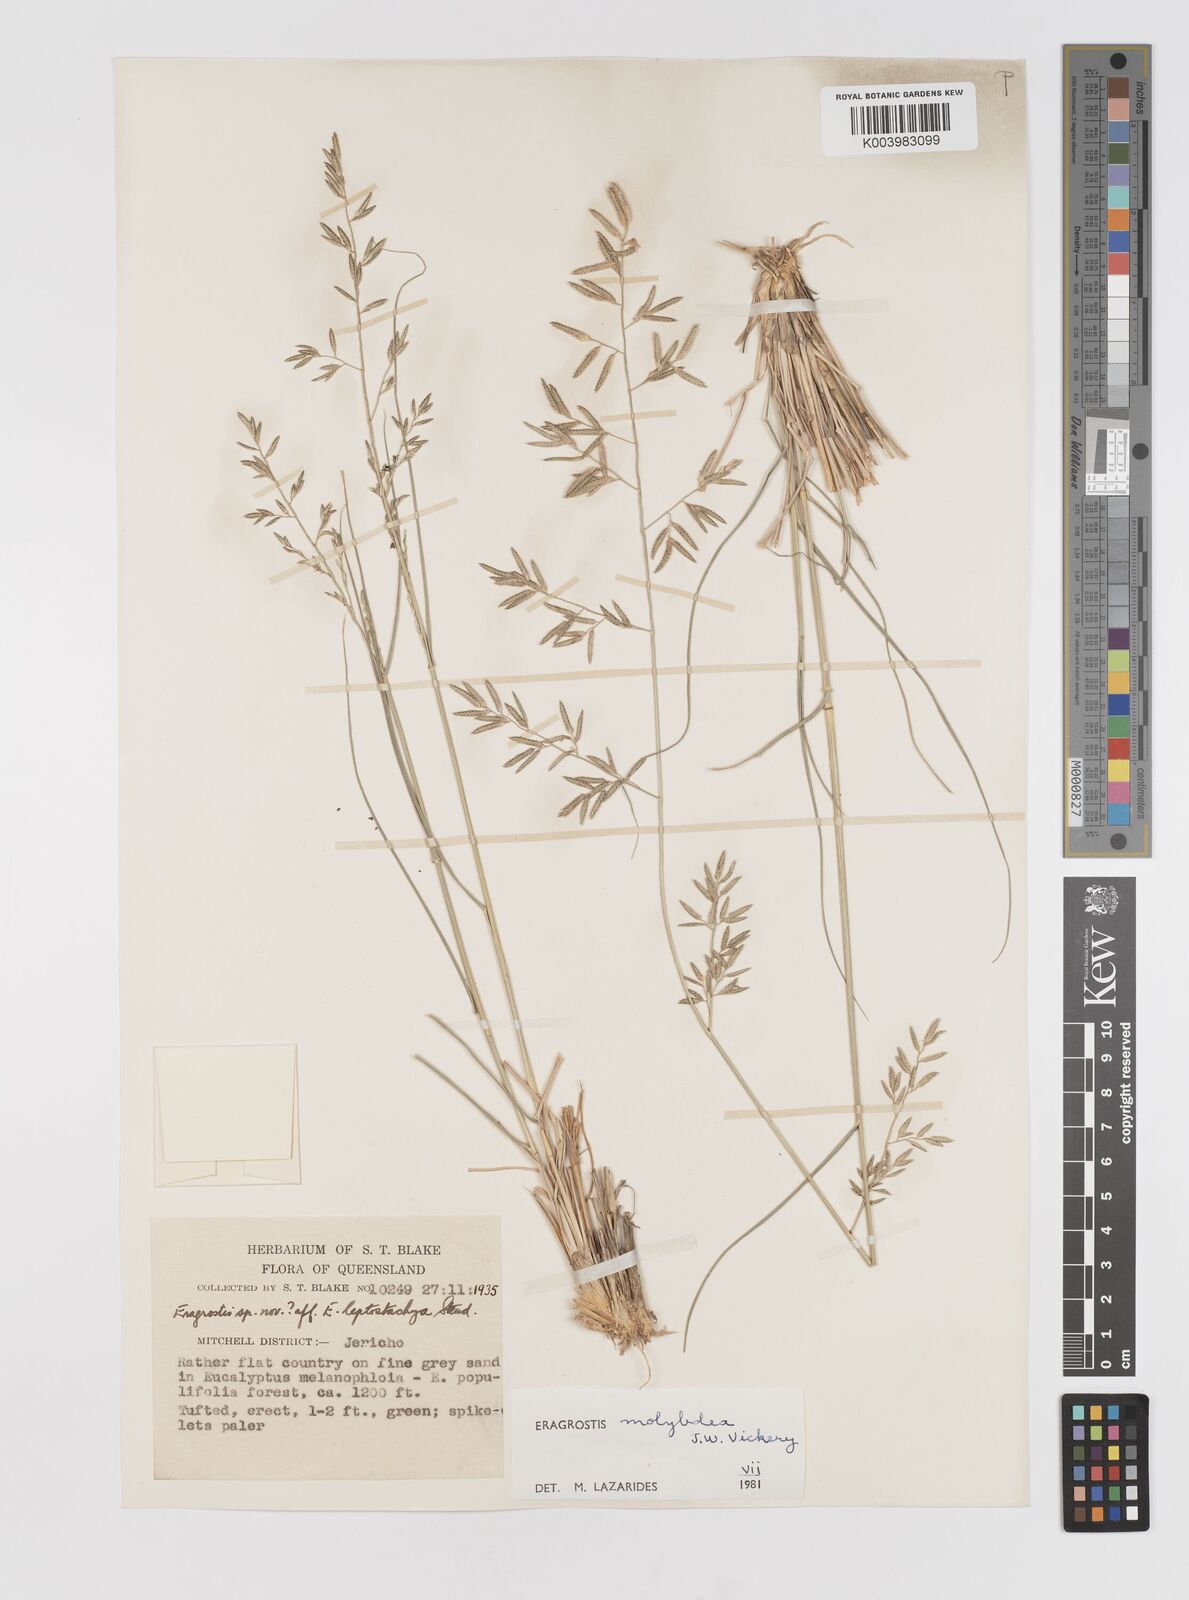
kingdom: Plantae
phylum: Tracheophyta
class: Liliopsida
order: Poales
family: Poaceae
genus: Eragrostis
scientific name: Eragrostis leptostachya
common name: Australian lovegrass
